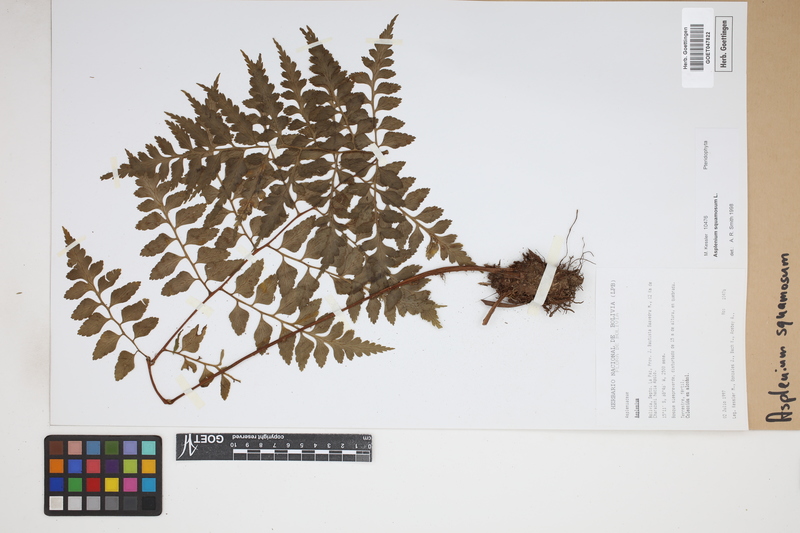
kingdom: Plantae
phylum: Tracheophyta
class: Polypodiopsida
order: Polypodiales
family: Aspleniaceae
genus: Asplenium
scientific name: Asplenium squamosum
